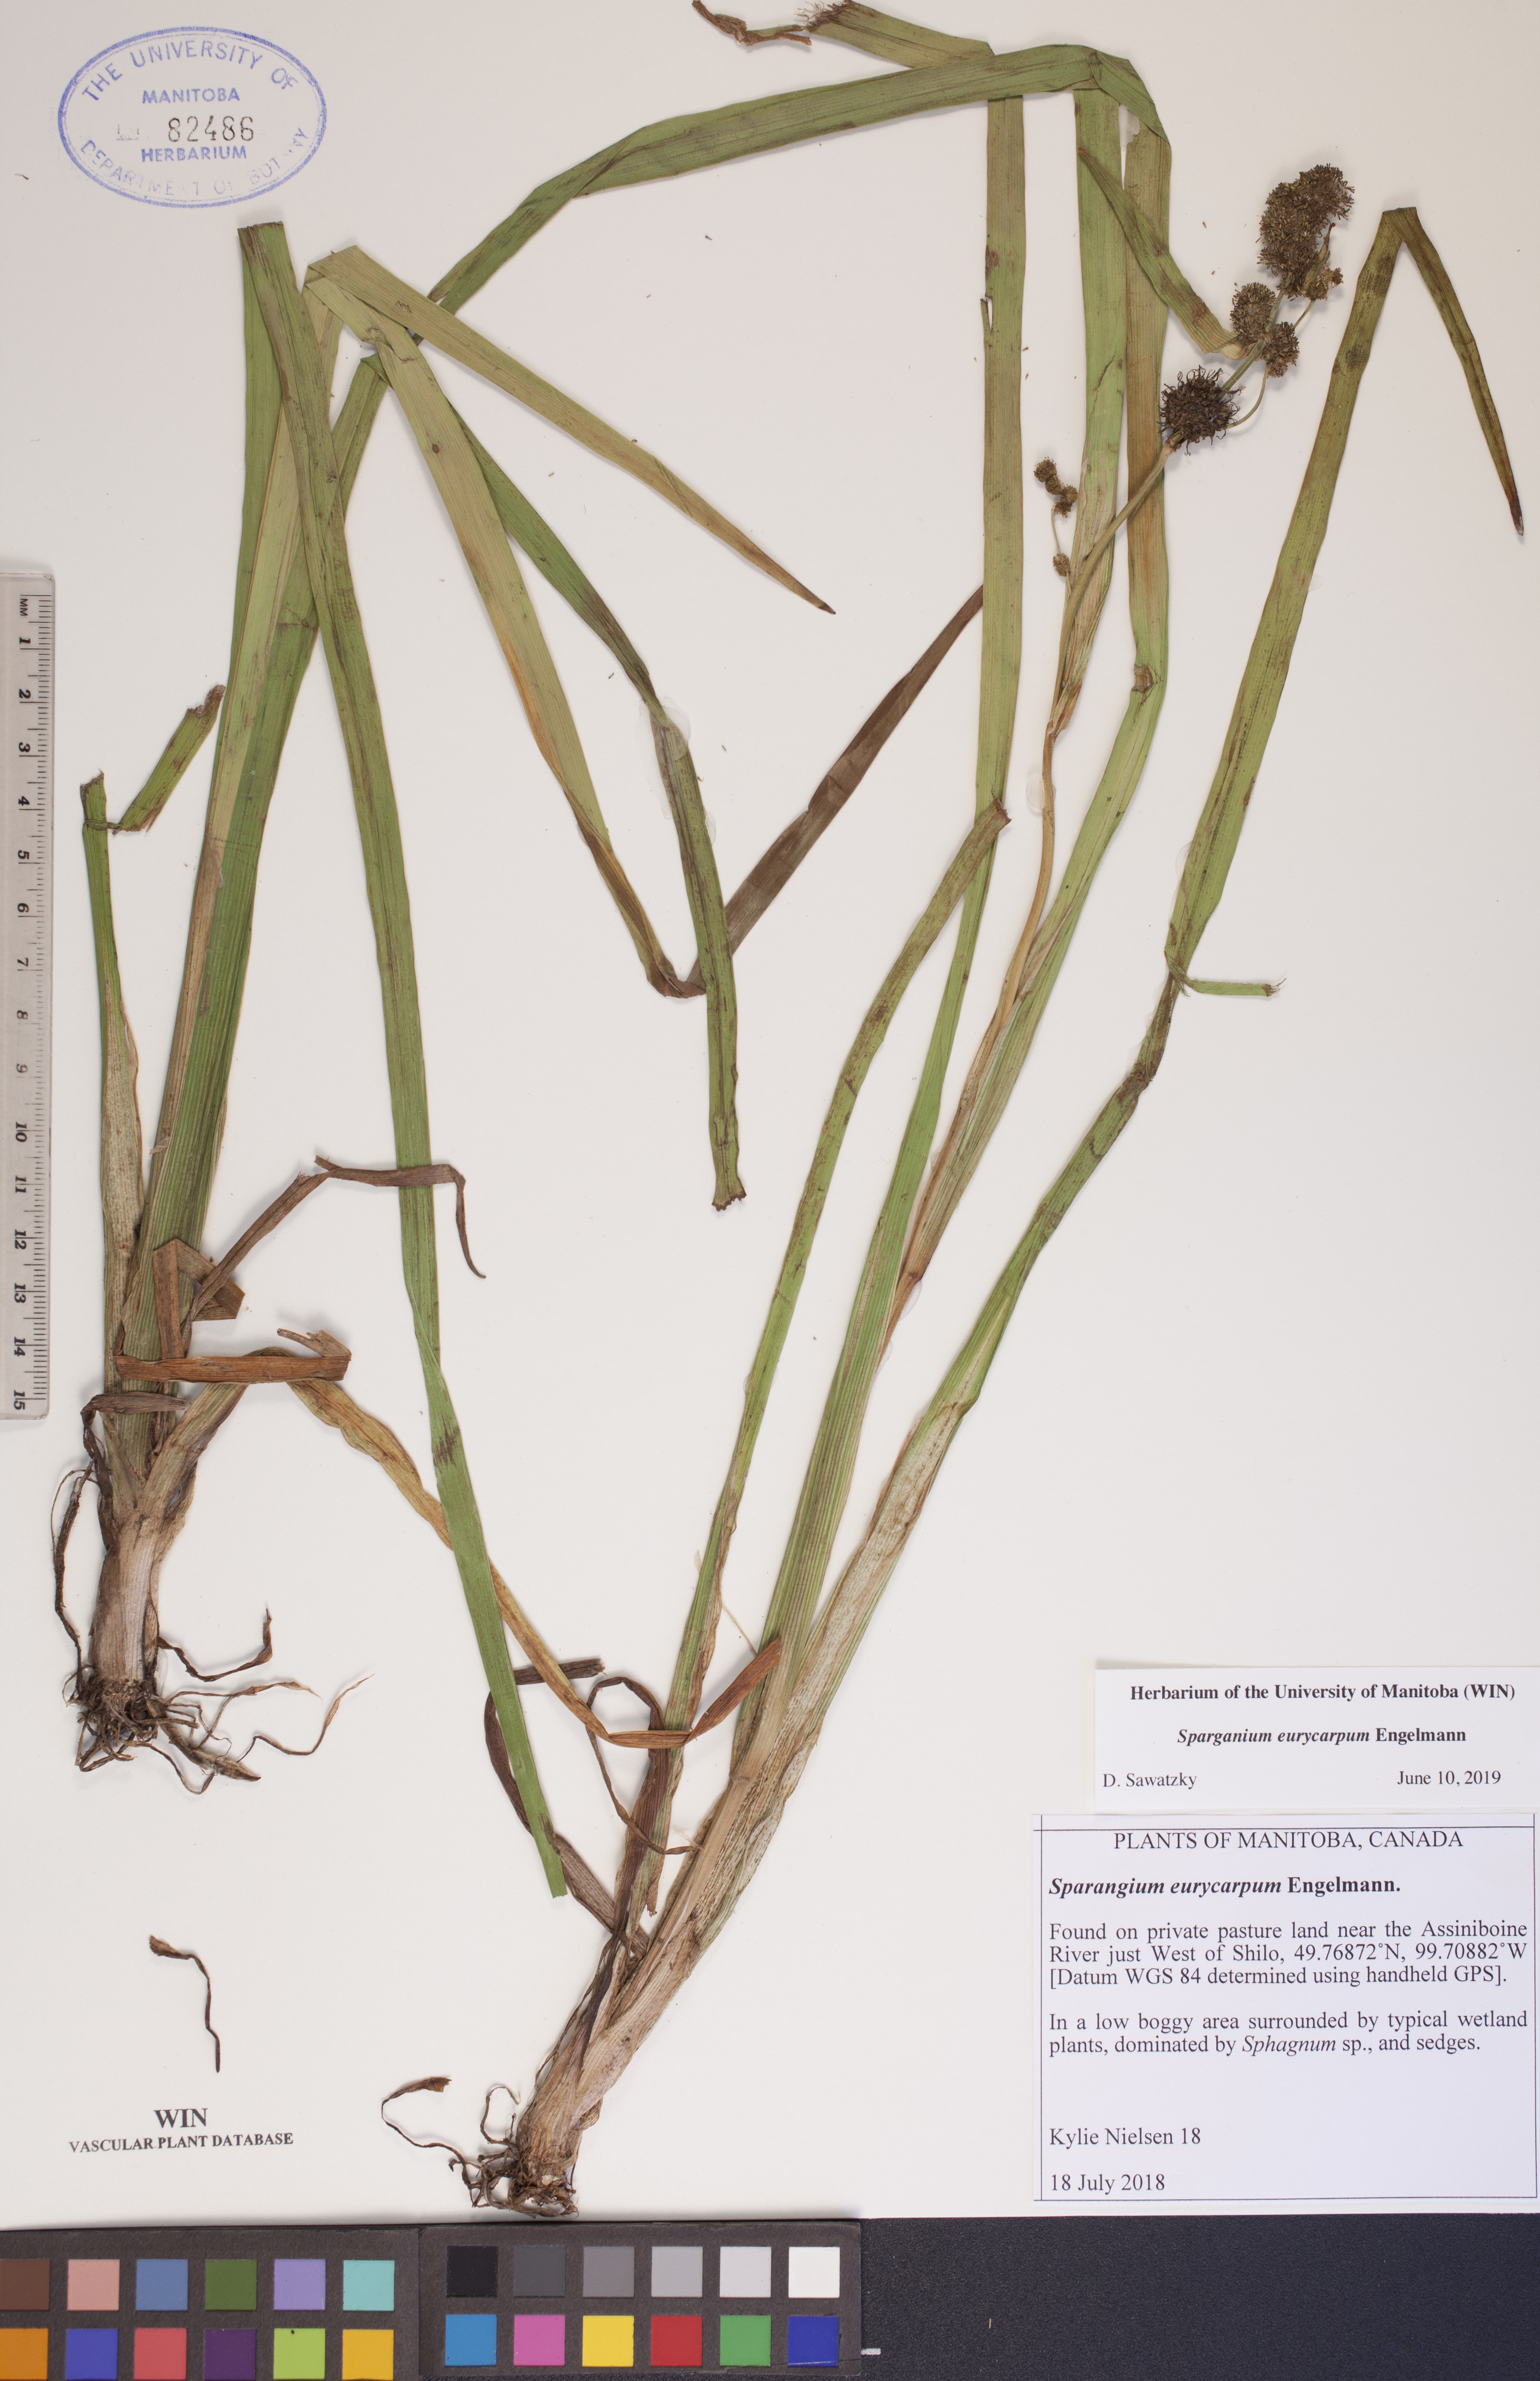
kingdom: Plantae
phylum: Tracheophyta
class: Liliopsida
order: Poales
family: Typhaceae
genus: Sparganium
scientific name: Sparganium eurycarpum
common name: Broad-fruited burreed
